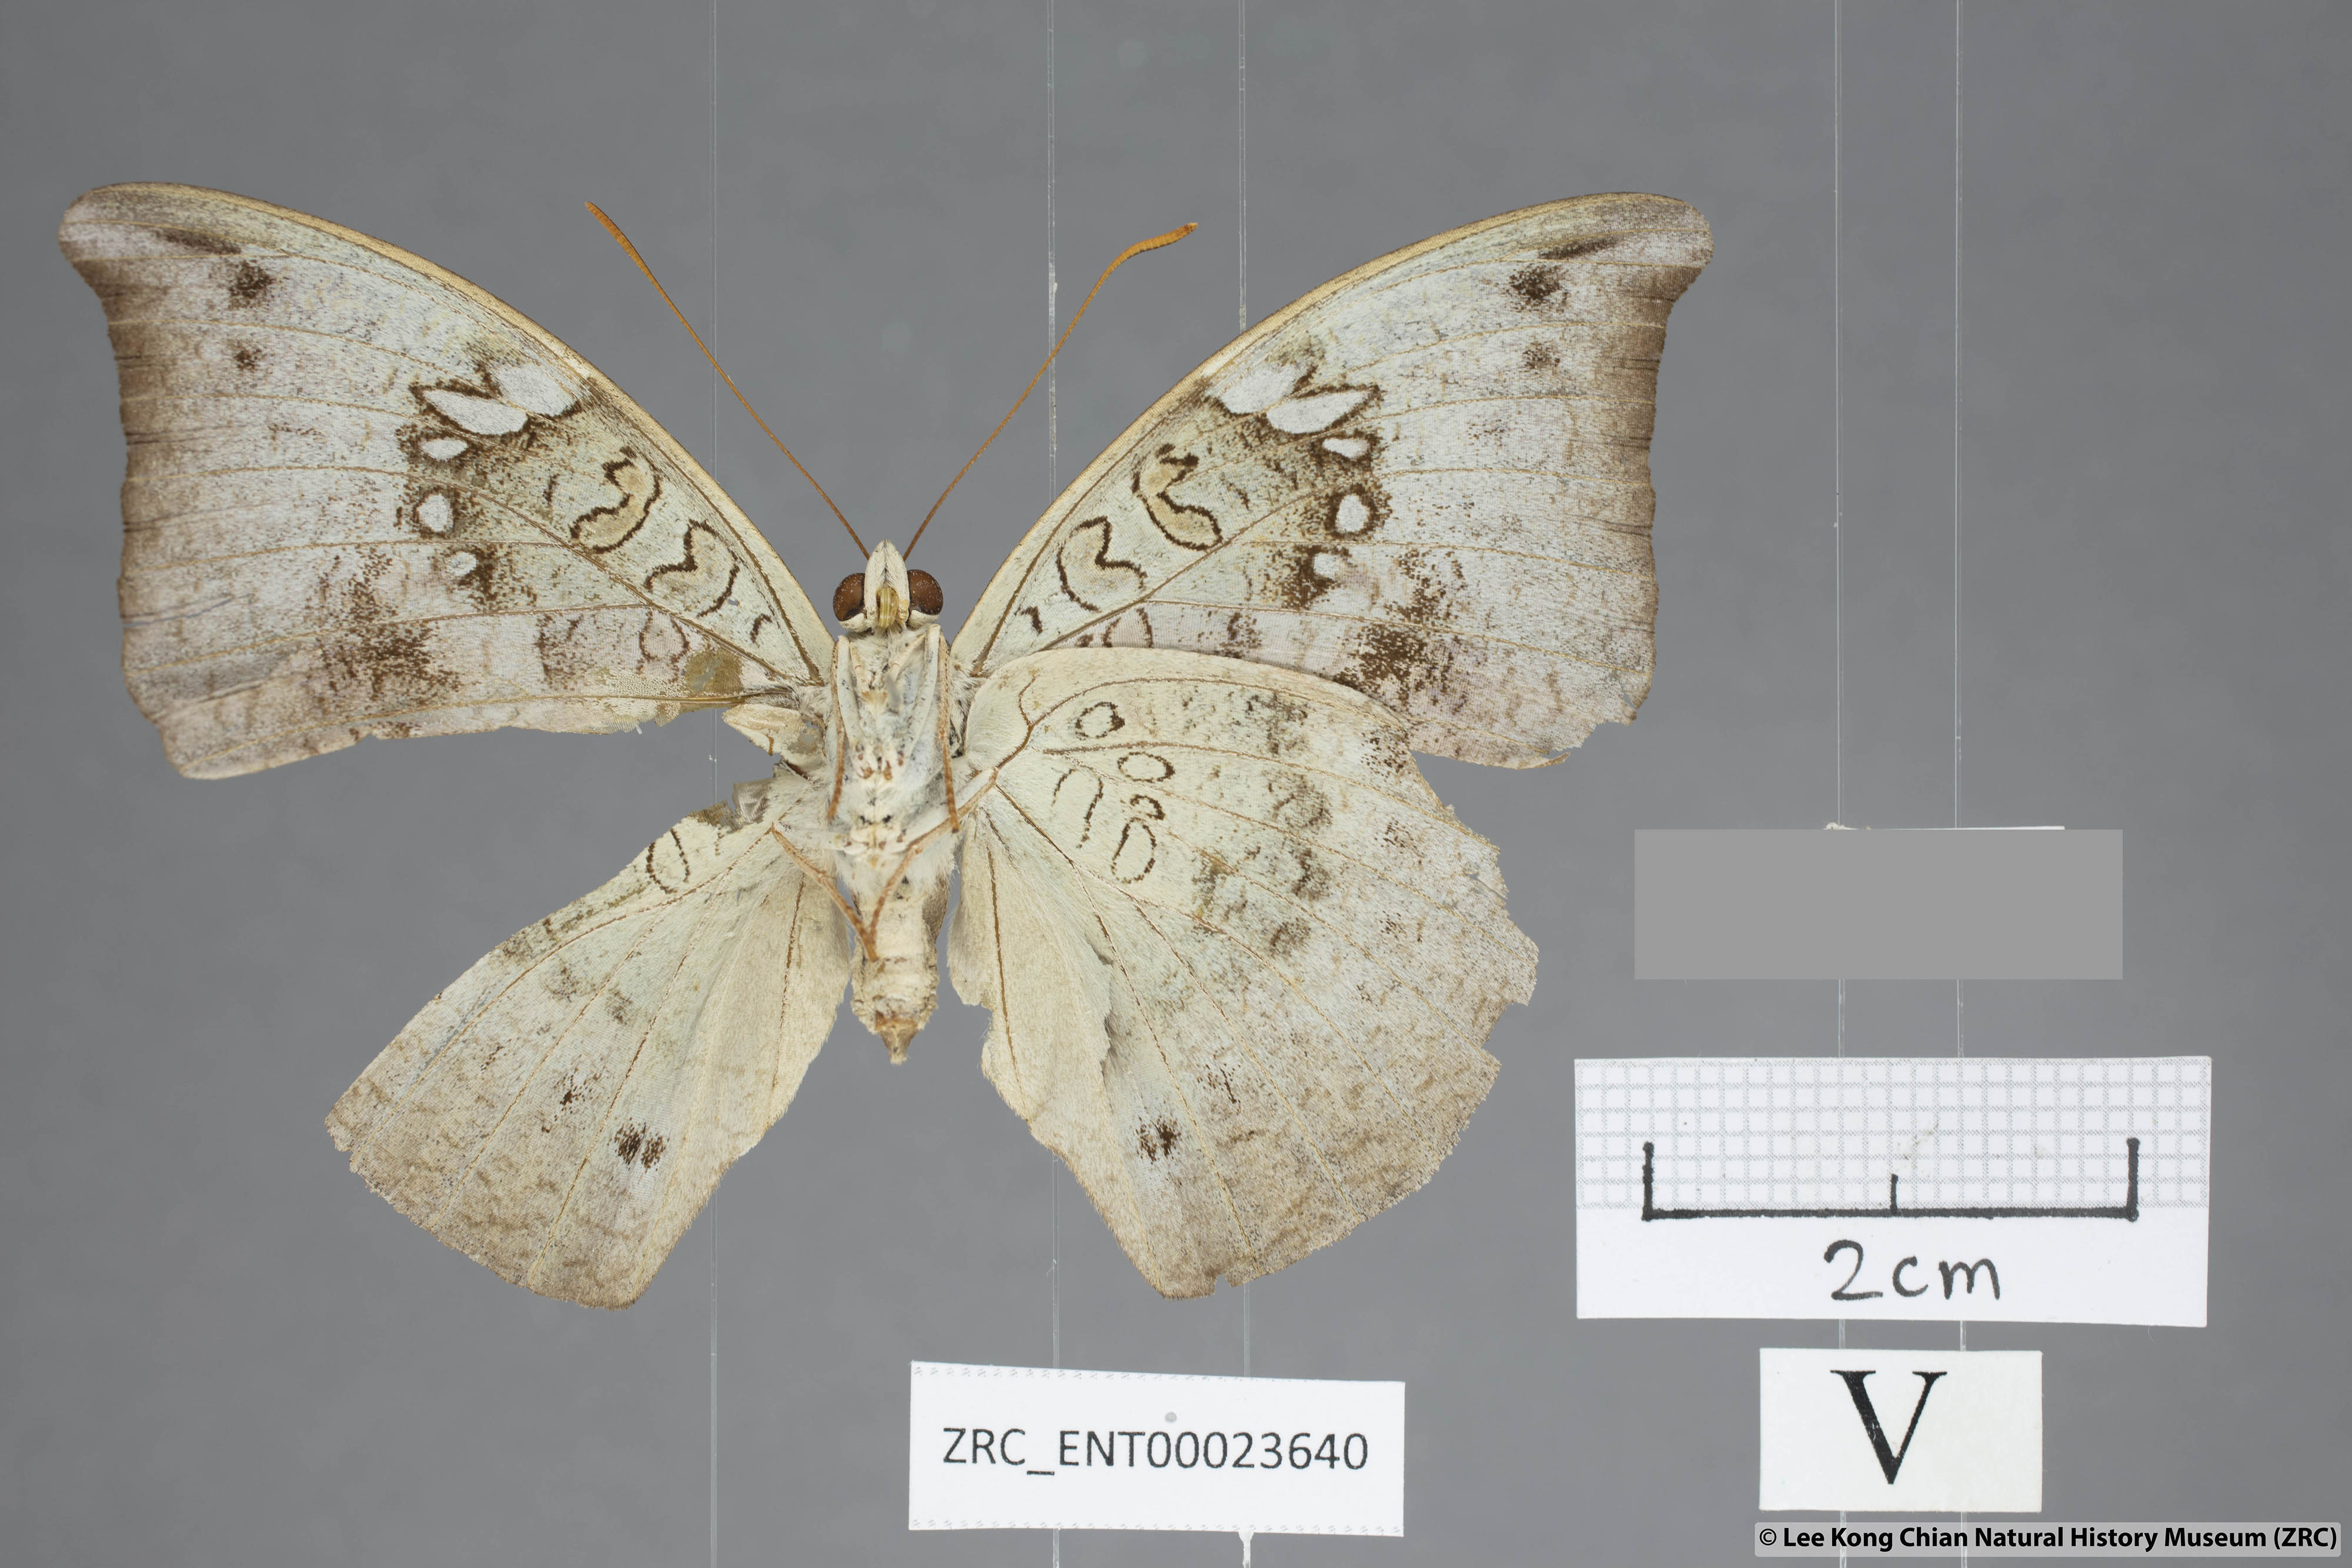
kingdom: Animalia
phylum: Arthropoda
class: Insecta
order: Lepidoptera
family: Nymphalidae
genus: Euthalia
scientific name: Euthalia anosia
